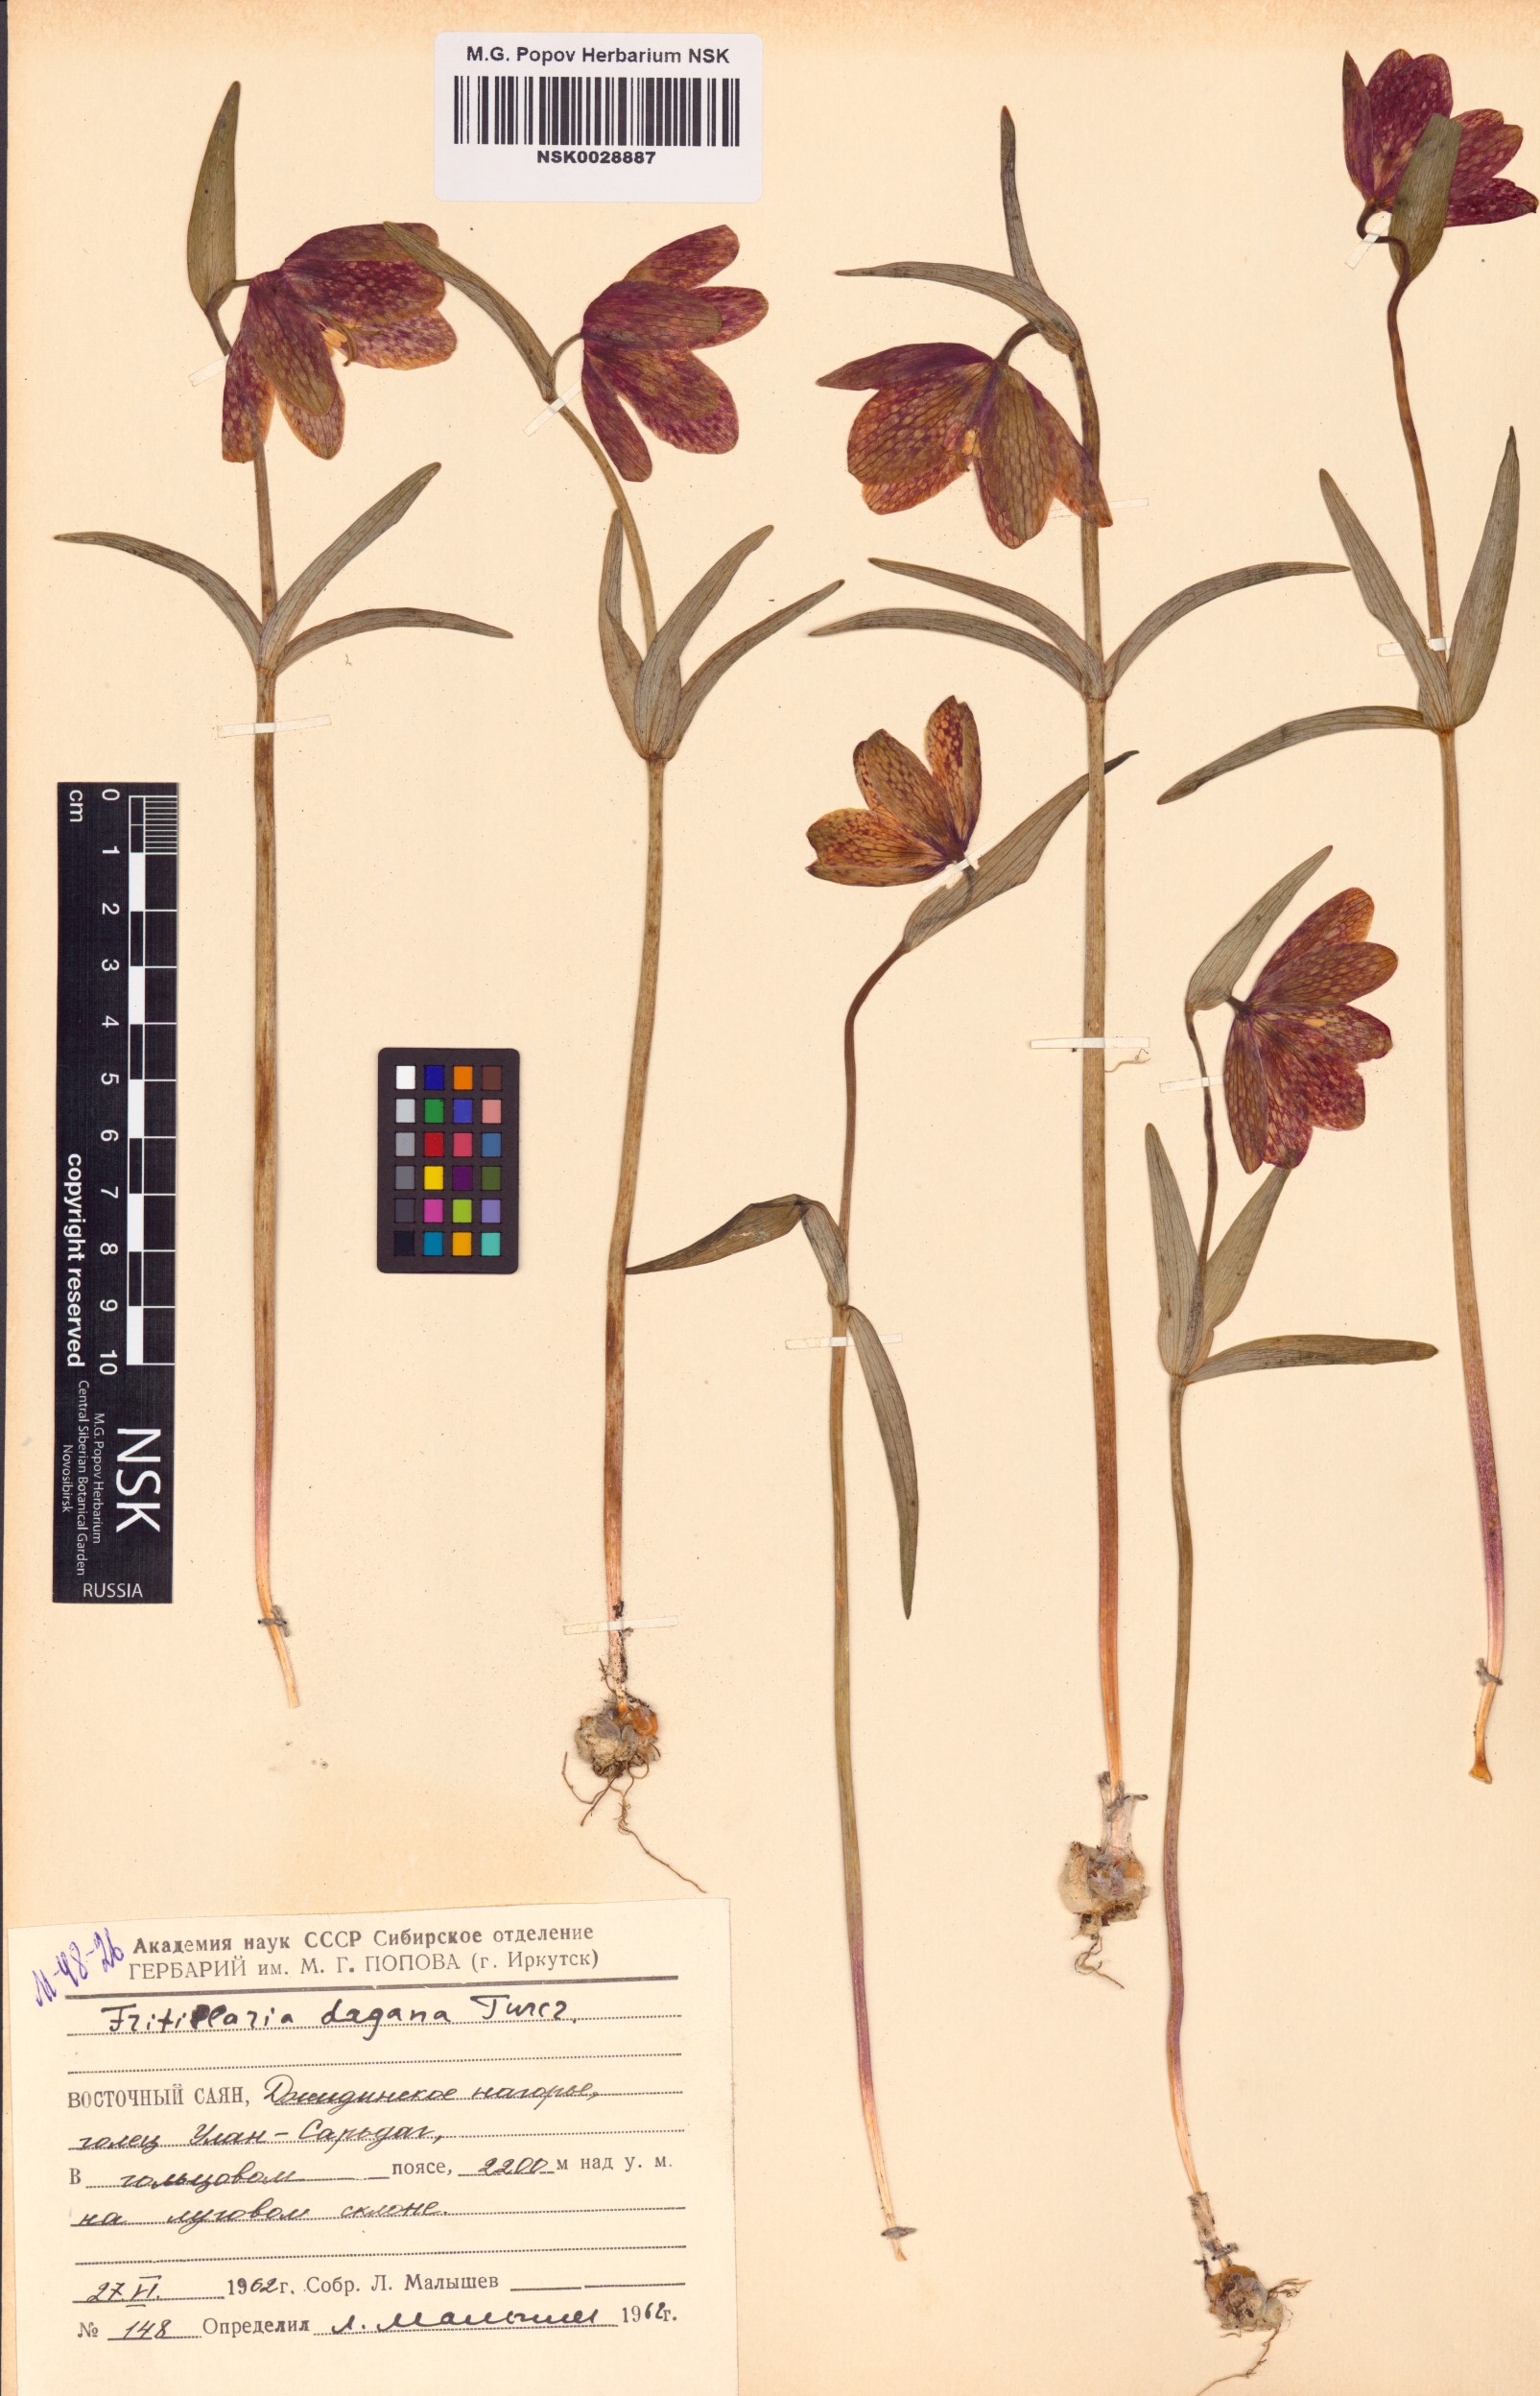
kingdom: Plantae
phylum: Tracheophyta
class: Liliopsida
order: Liliales
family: Liliaceae
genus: Fritillaria
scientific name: Fritillaria dagana
